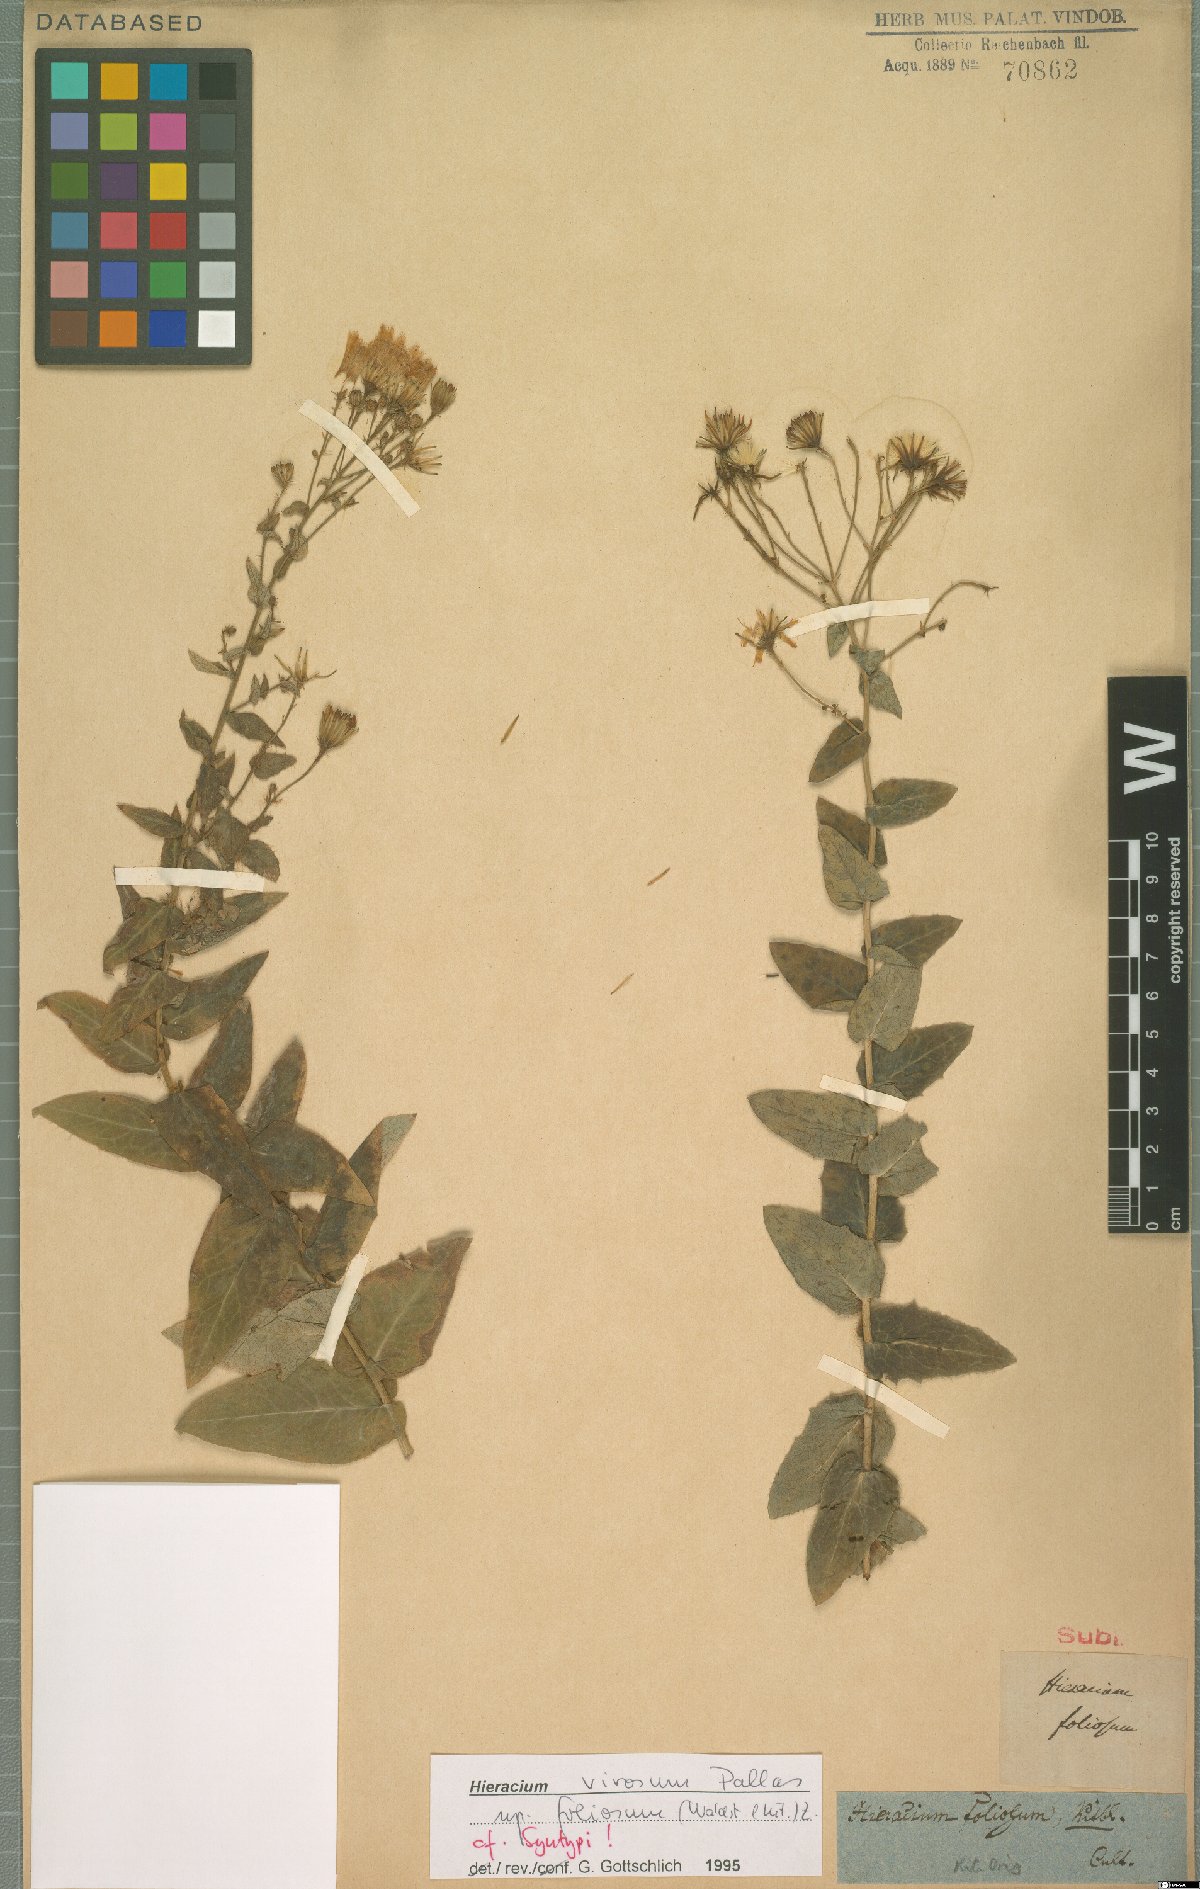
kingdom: Plantae
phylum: Tracheophyta
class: Magnoliopsida
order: Asterales
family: Asteraceae
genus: Hieracium
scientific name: Hieracium virosum
